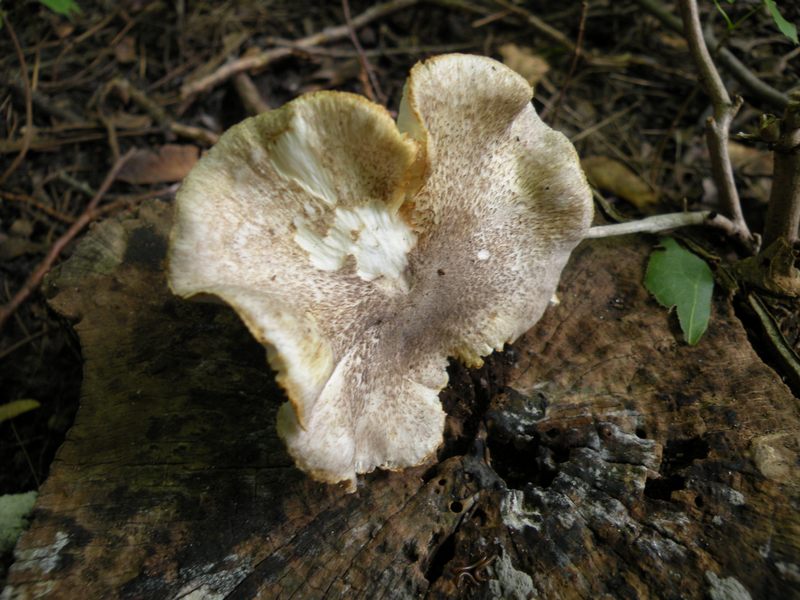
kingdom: Fungi
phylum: Basidiomycota
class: Agaricomycetes
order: Agaricales
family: Tricholomataceae
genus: Tricholoma
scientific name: Tricholoma scalpturatum
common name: gulplettet ridderhat
